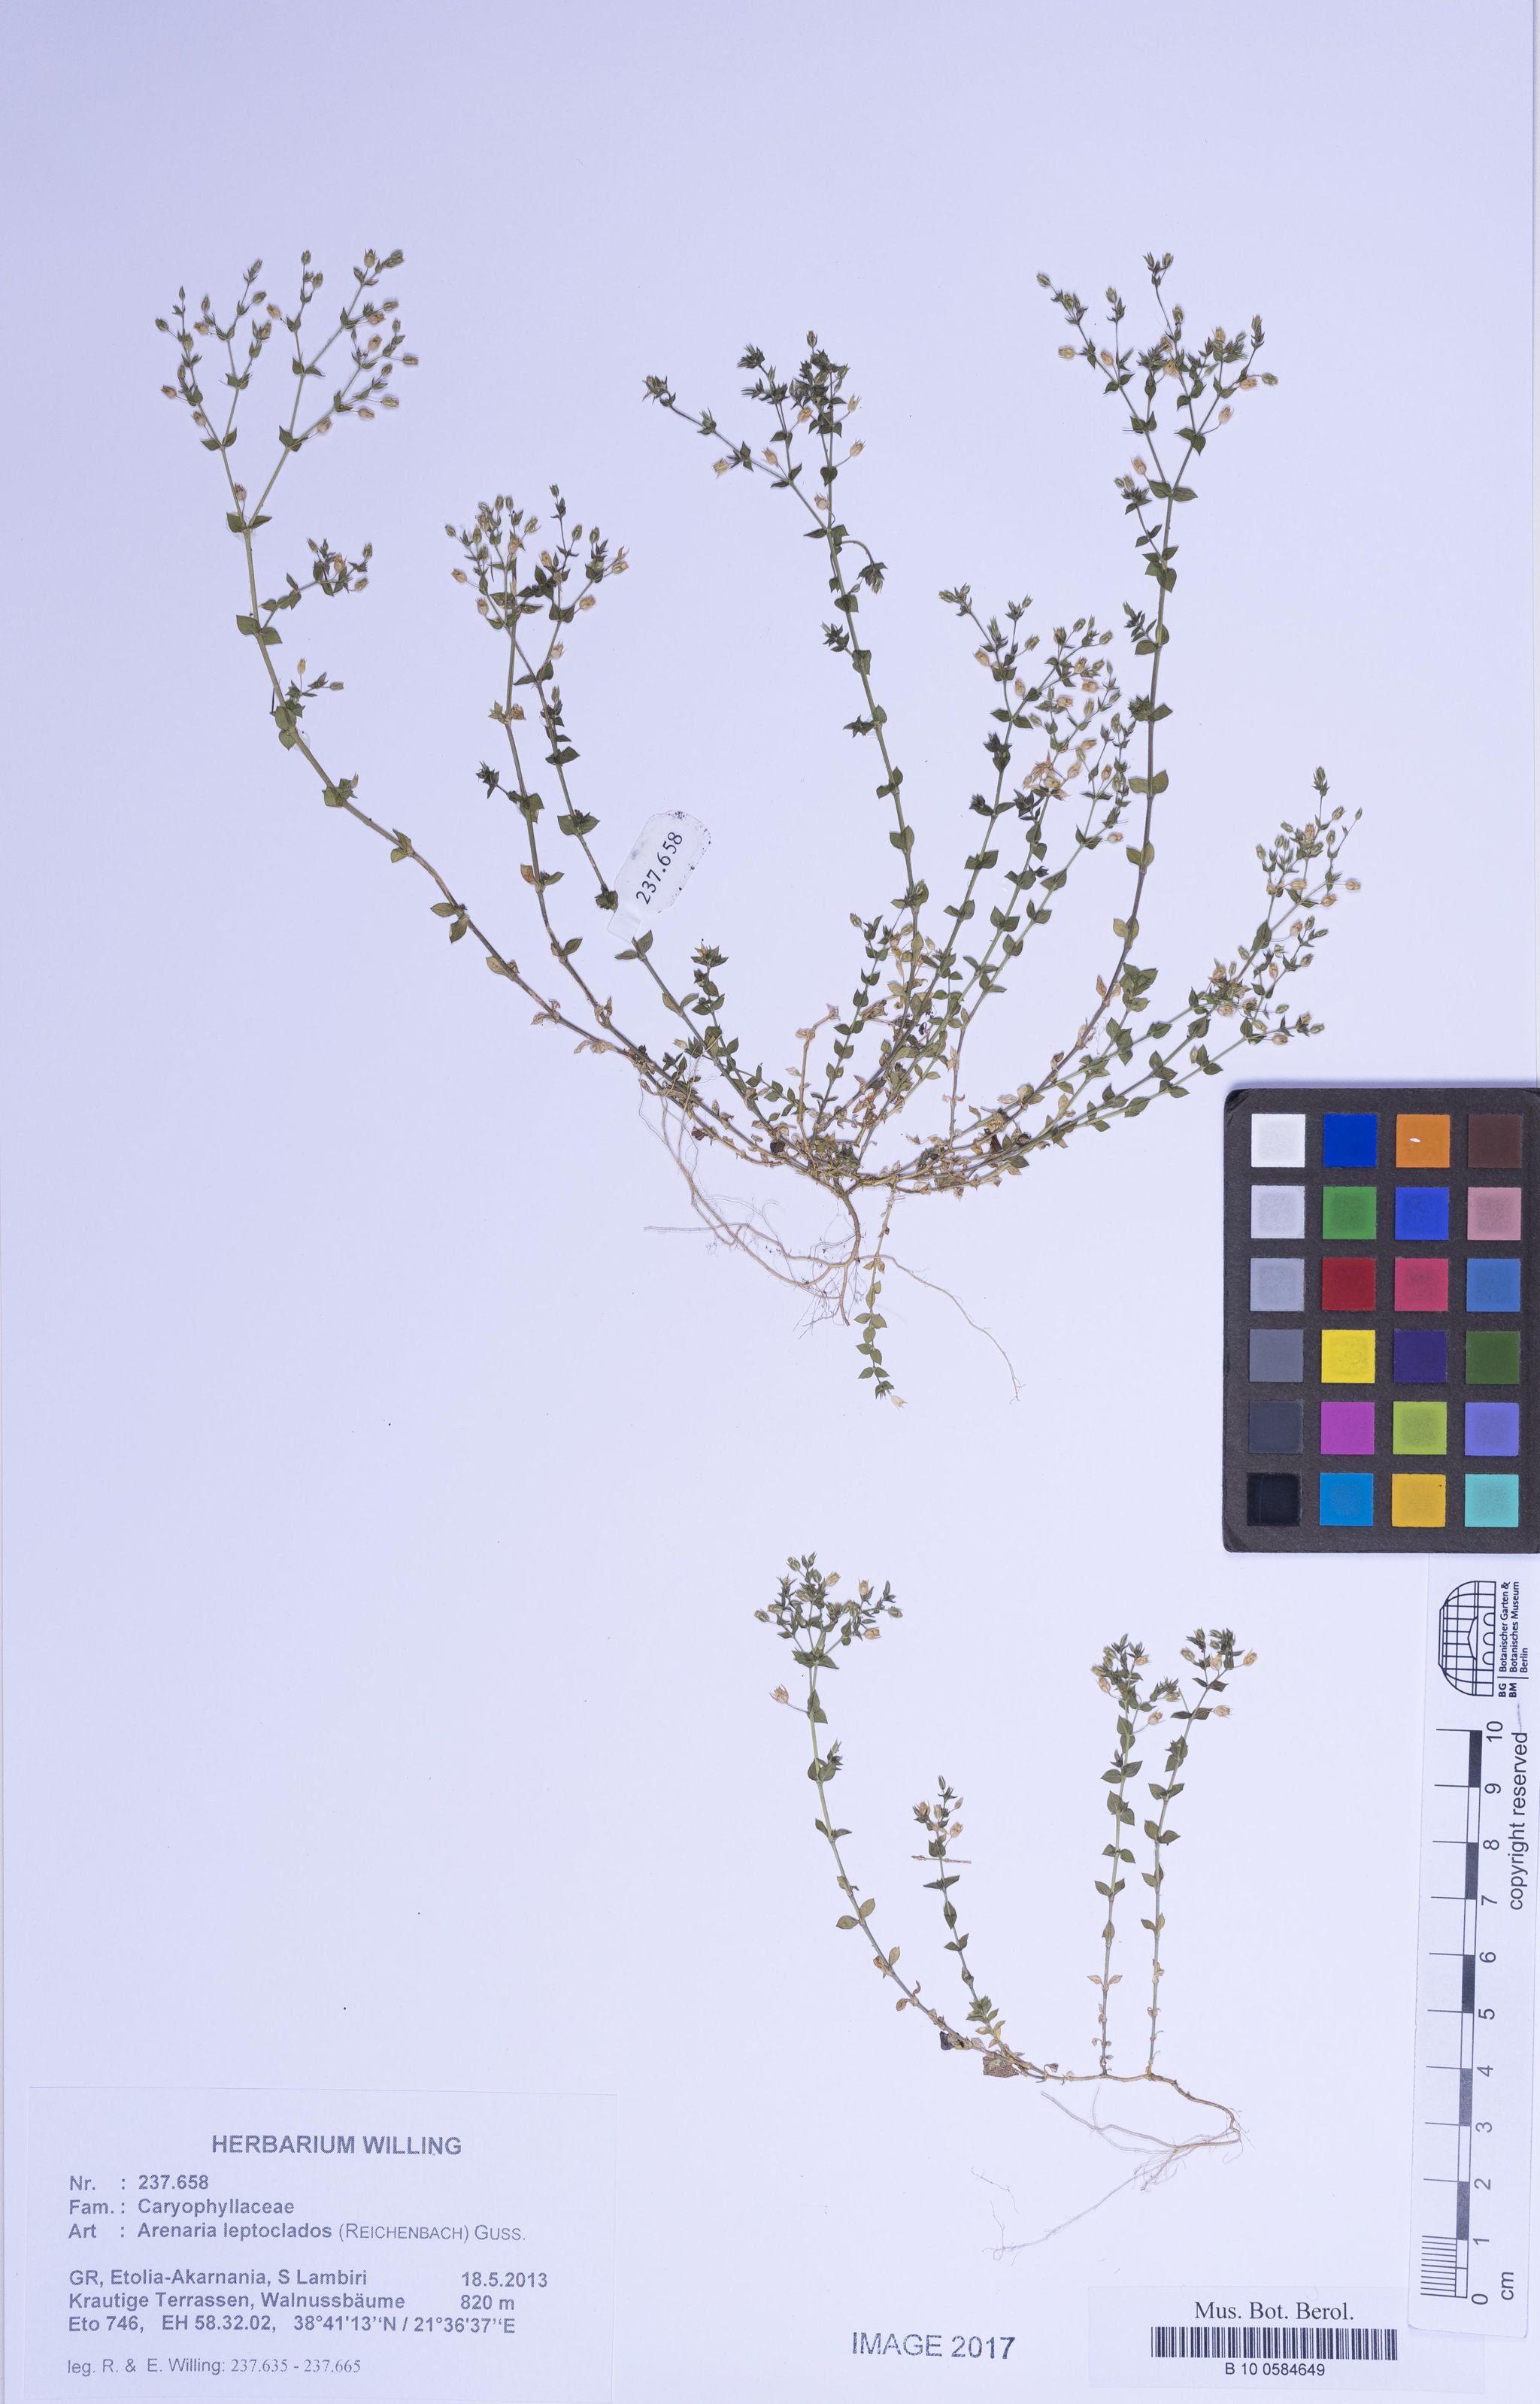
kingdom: Plantae
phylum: Tracheophyta
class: Magnoliopsida
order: Caryophyllales
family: Caryophyllaceae
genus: Arenaria
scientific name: Arenaria leptoclados
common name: Thyme-leaved sandwort
